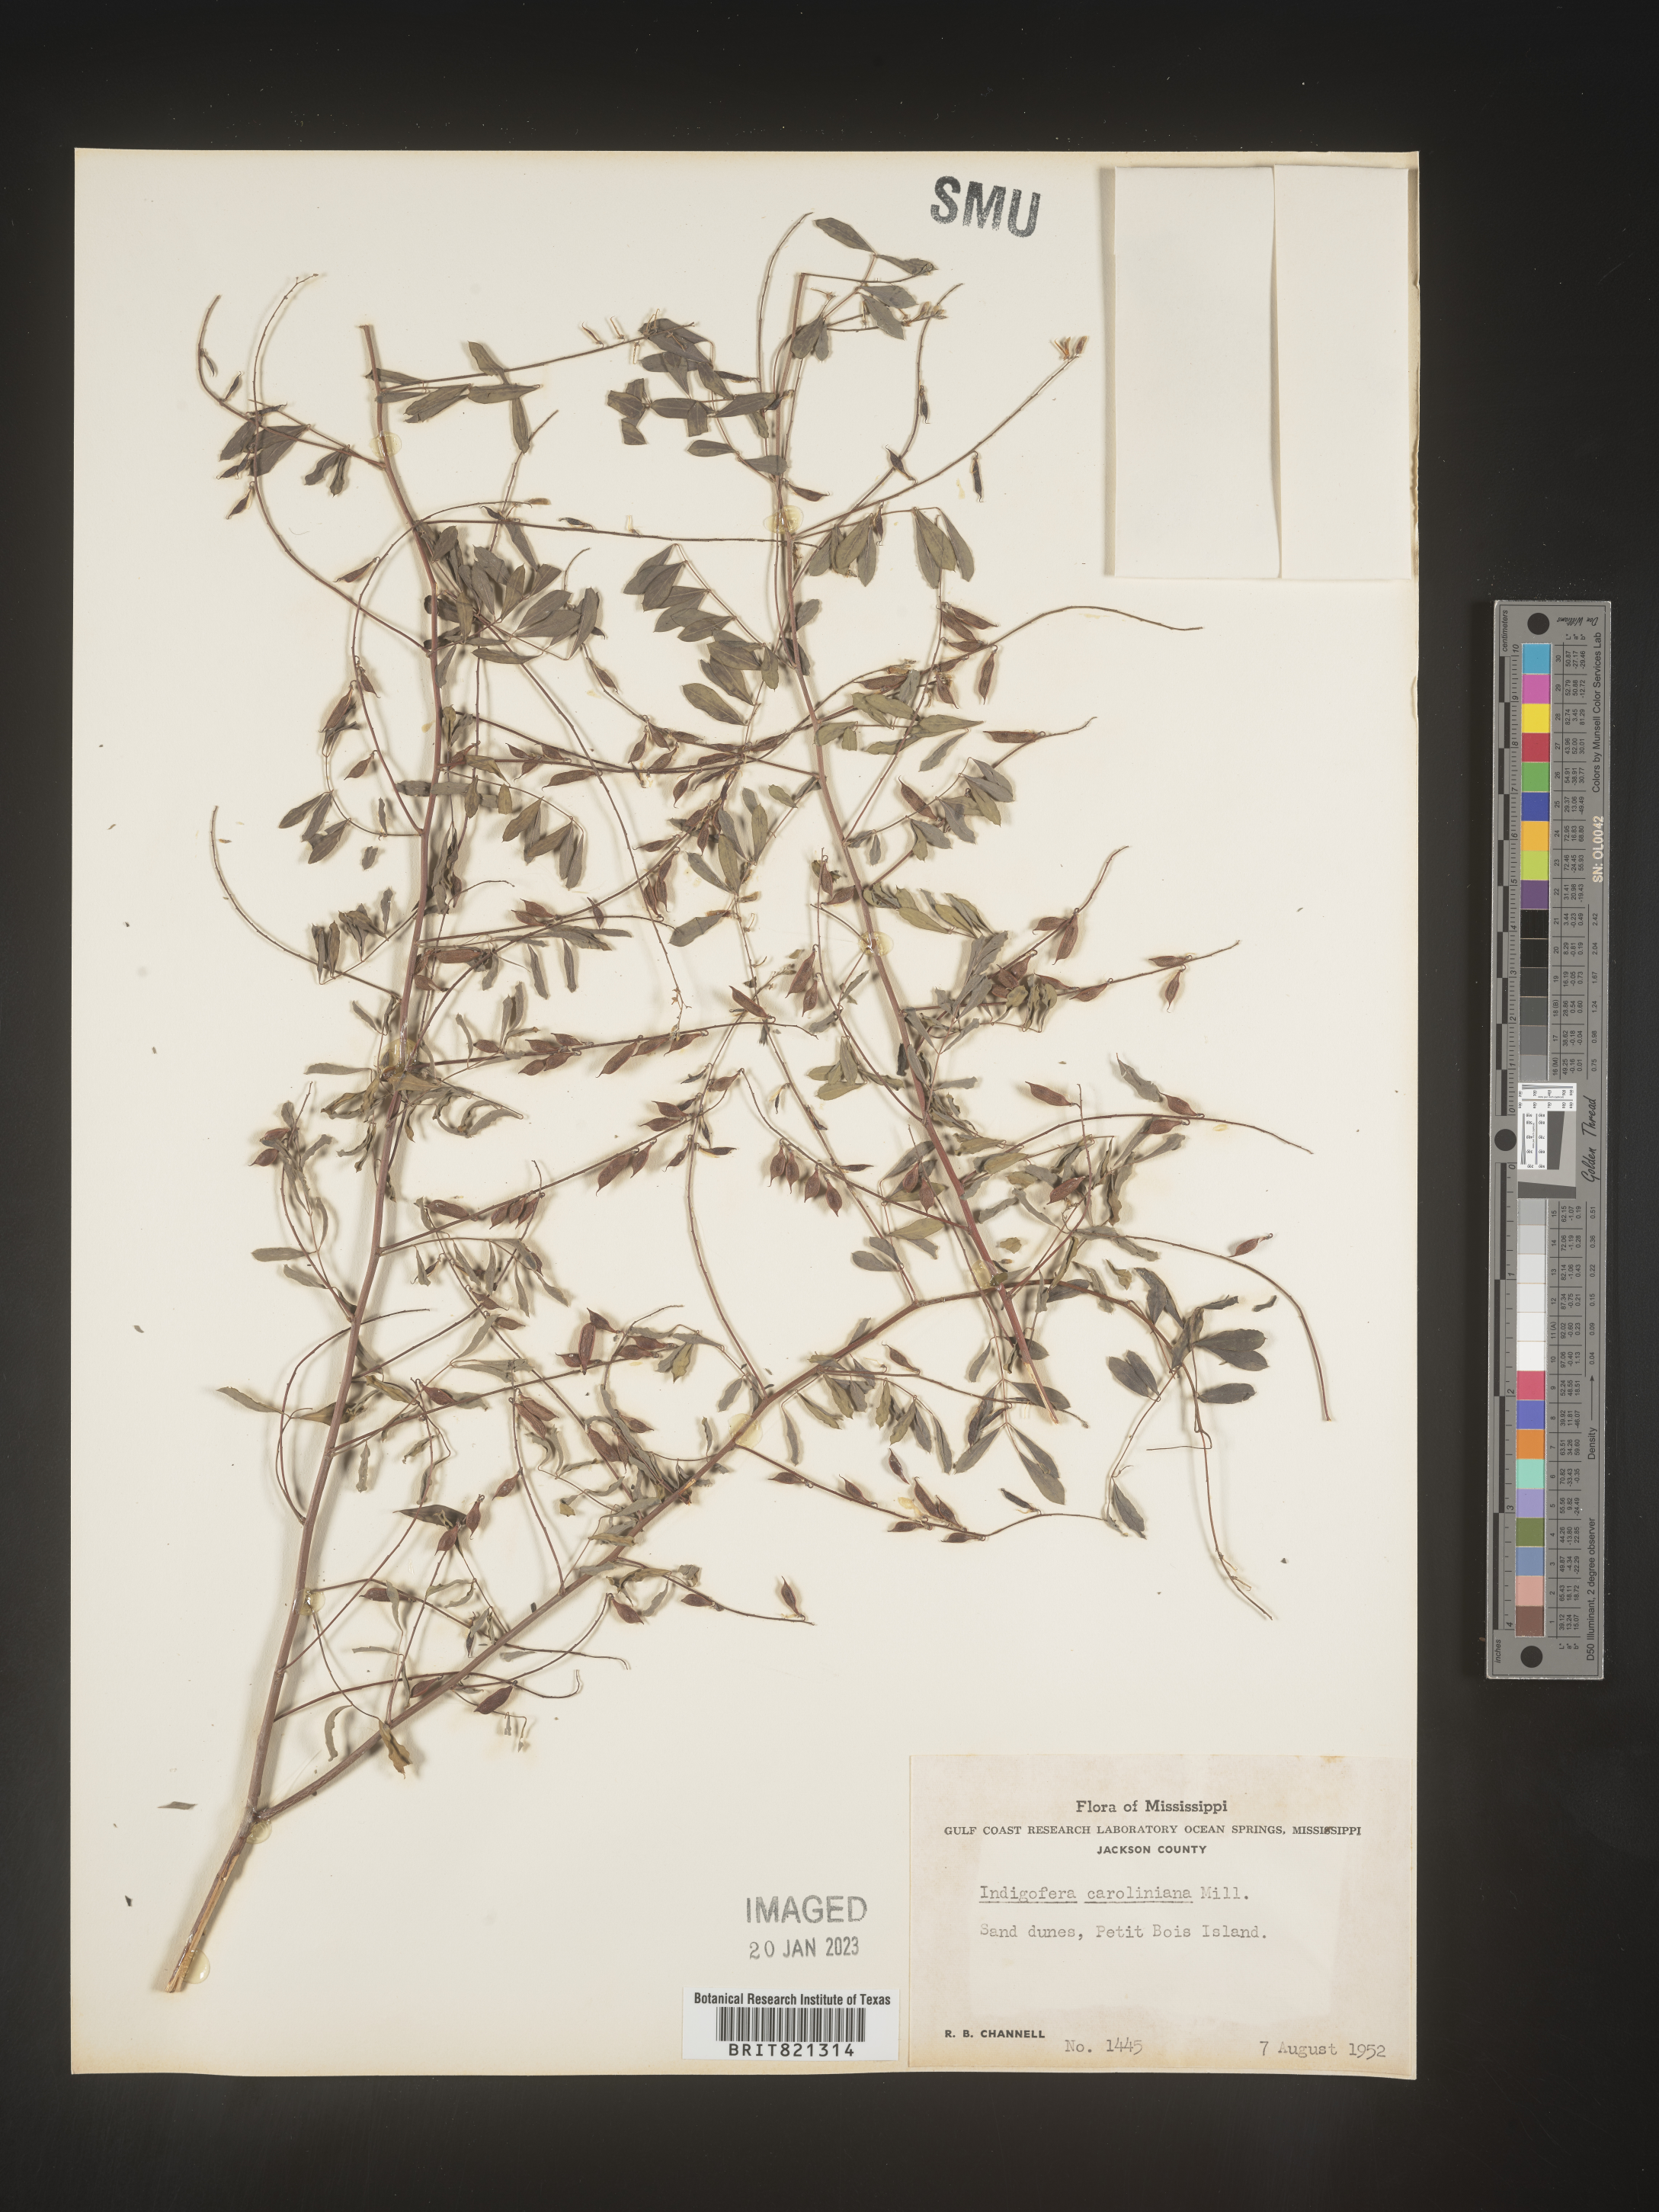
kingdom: Plantae
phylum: Tracheophyta
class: Magnoliopsida
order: Fabales
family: Fabaceae
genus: Indigofera
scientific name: Indigofera
